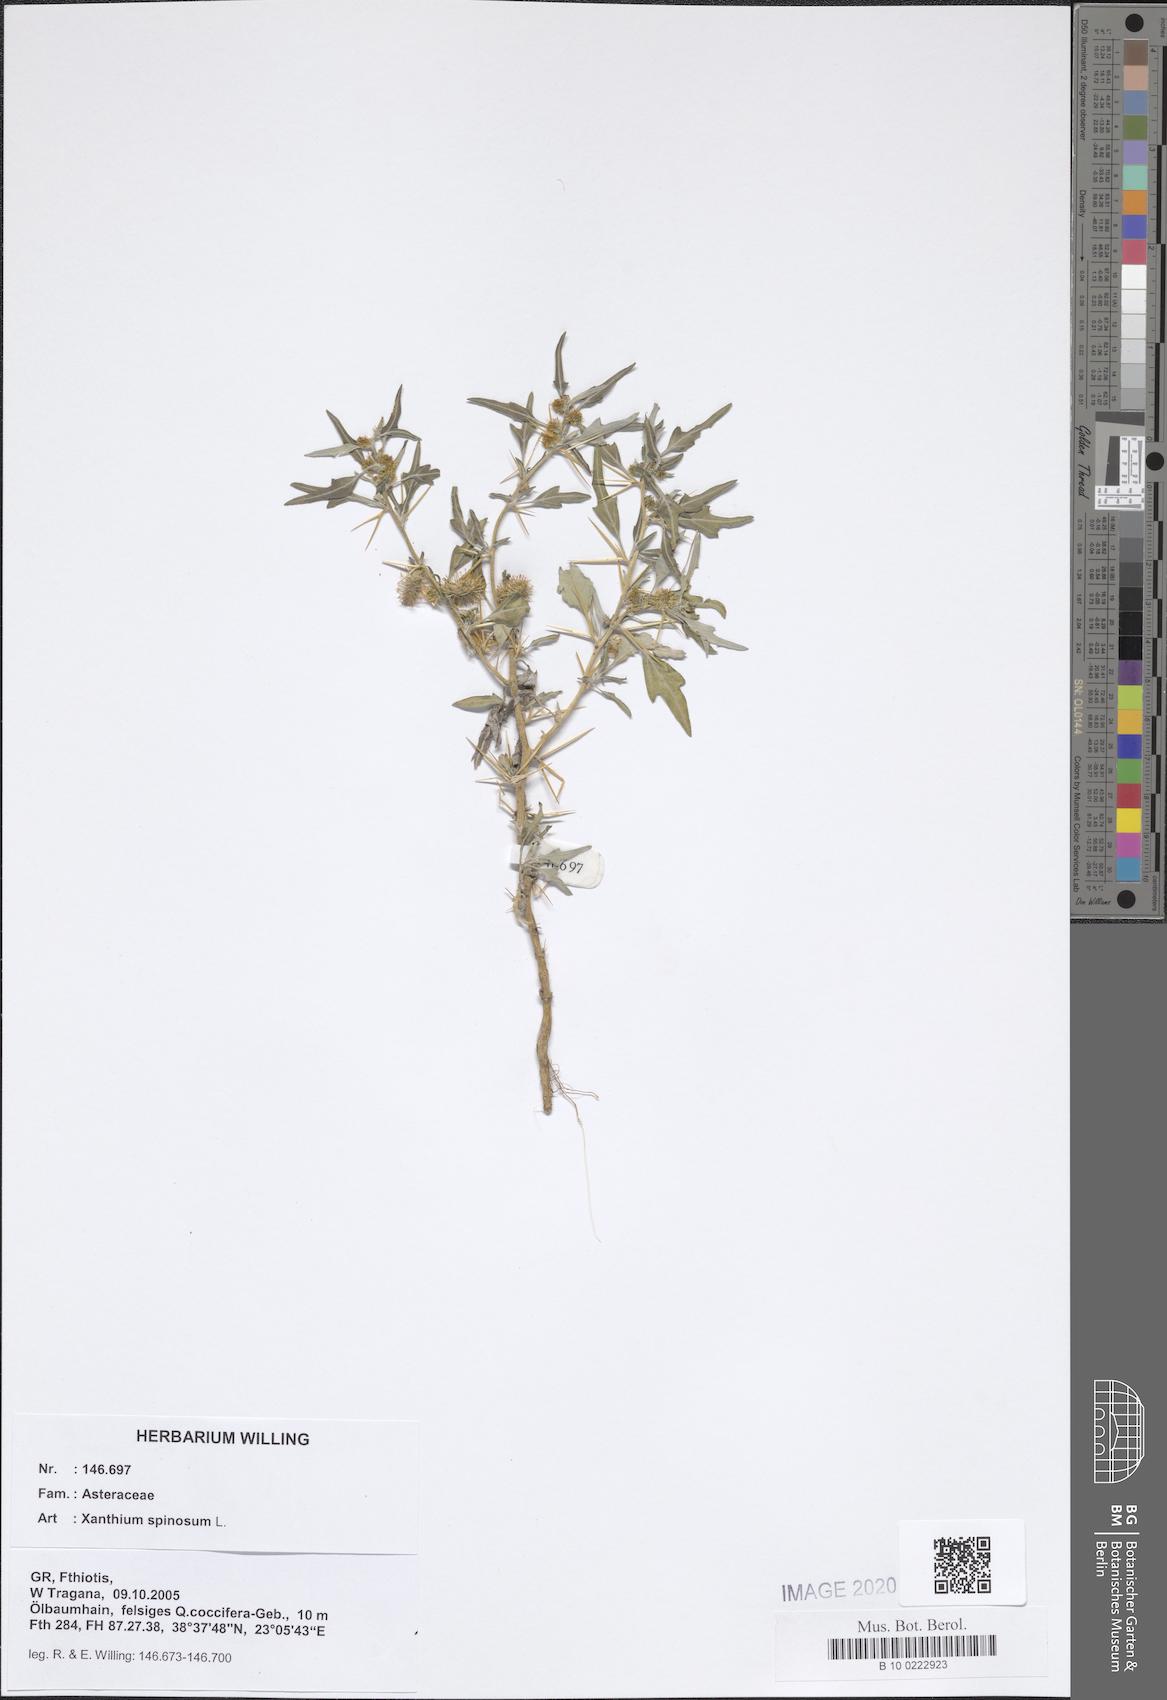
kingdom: Plantae
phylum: Tracheophyta
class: Magnoliopsida
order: Asterales
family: Asteraceae
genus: Xanthium
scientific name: Xanthium spinosum
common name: Spiny cocklebur
